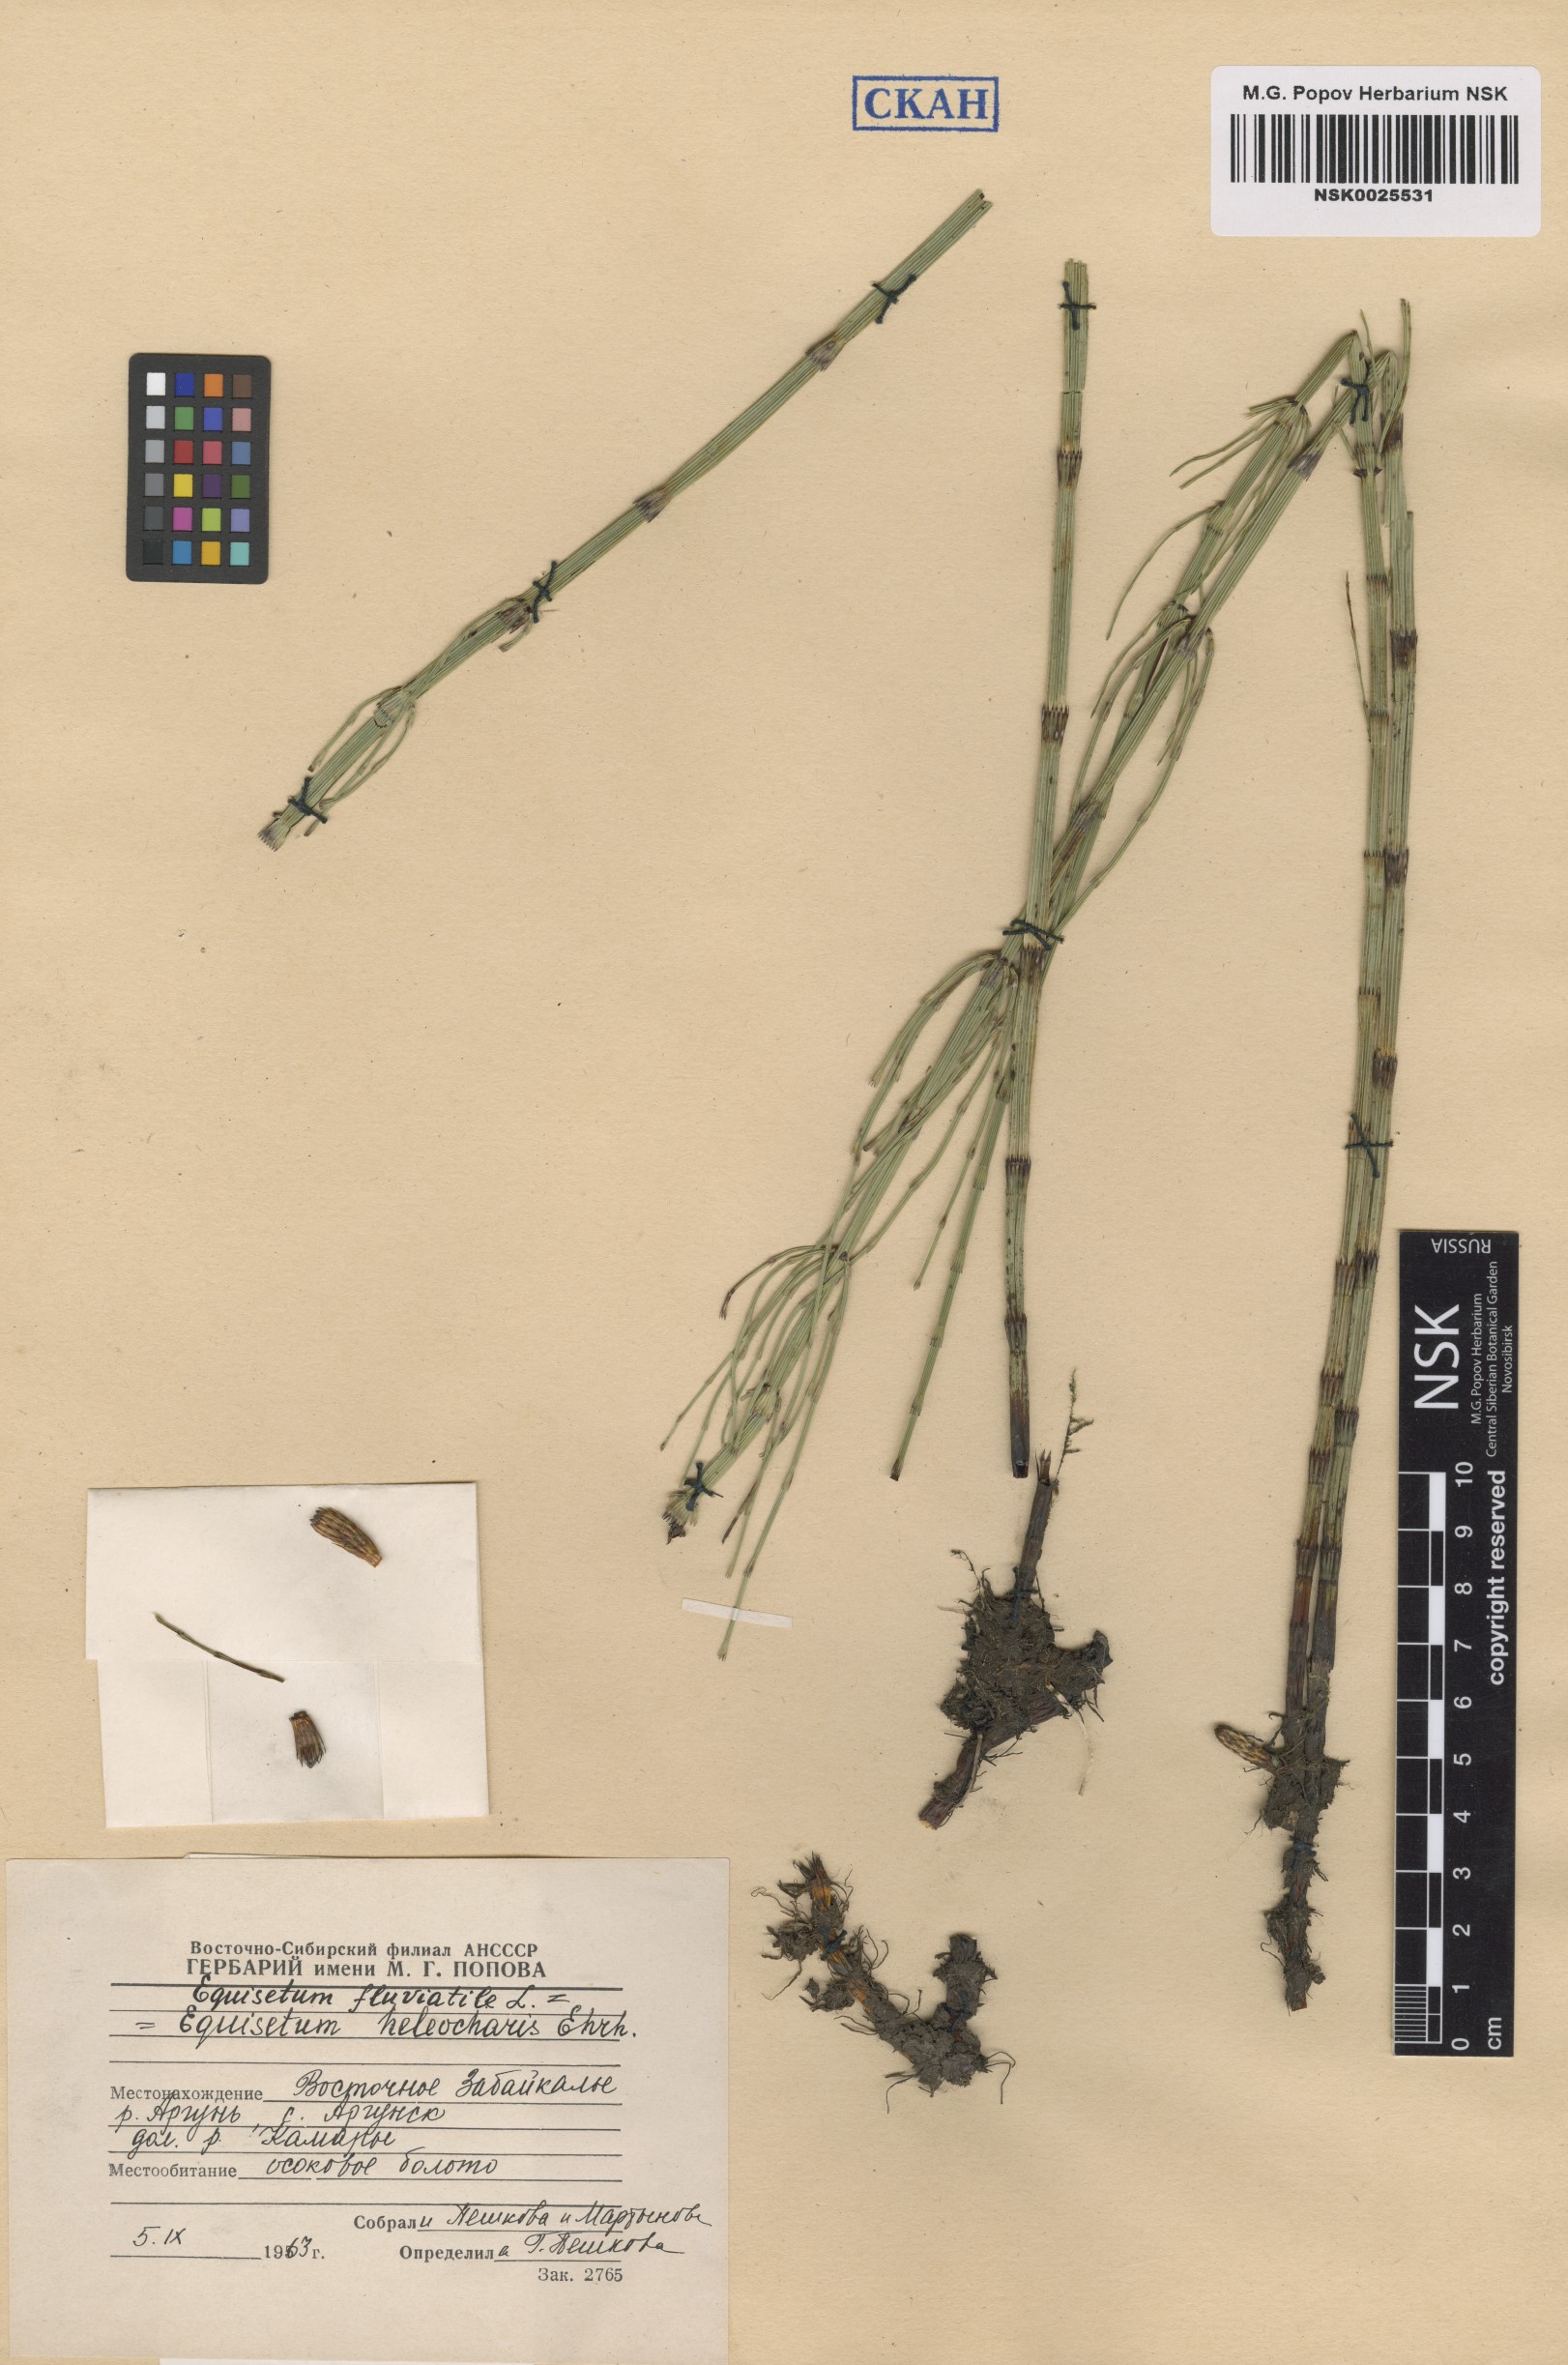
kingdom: Plantae
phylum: Tracheophyta
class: Polypodiopsida
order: Equisetales
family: Equisetaceae
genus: Equisetum
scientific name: Equisetum fluviatile
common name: Water horsetail
